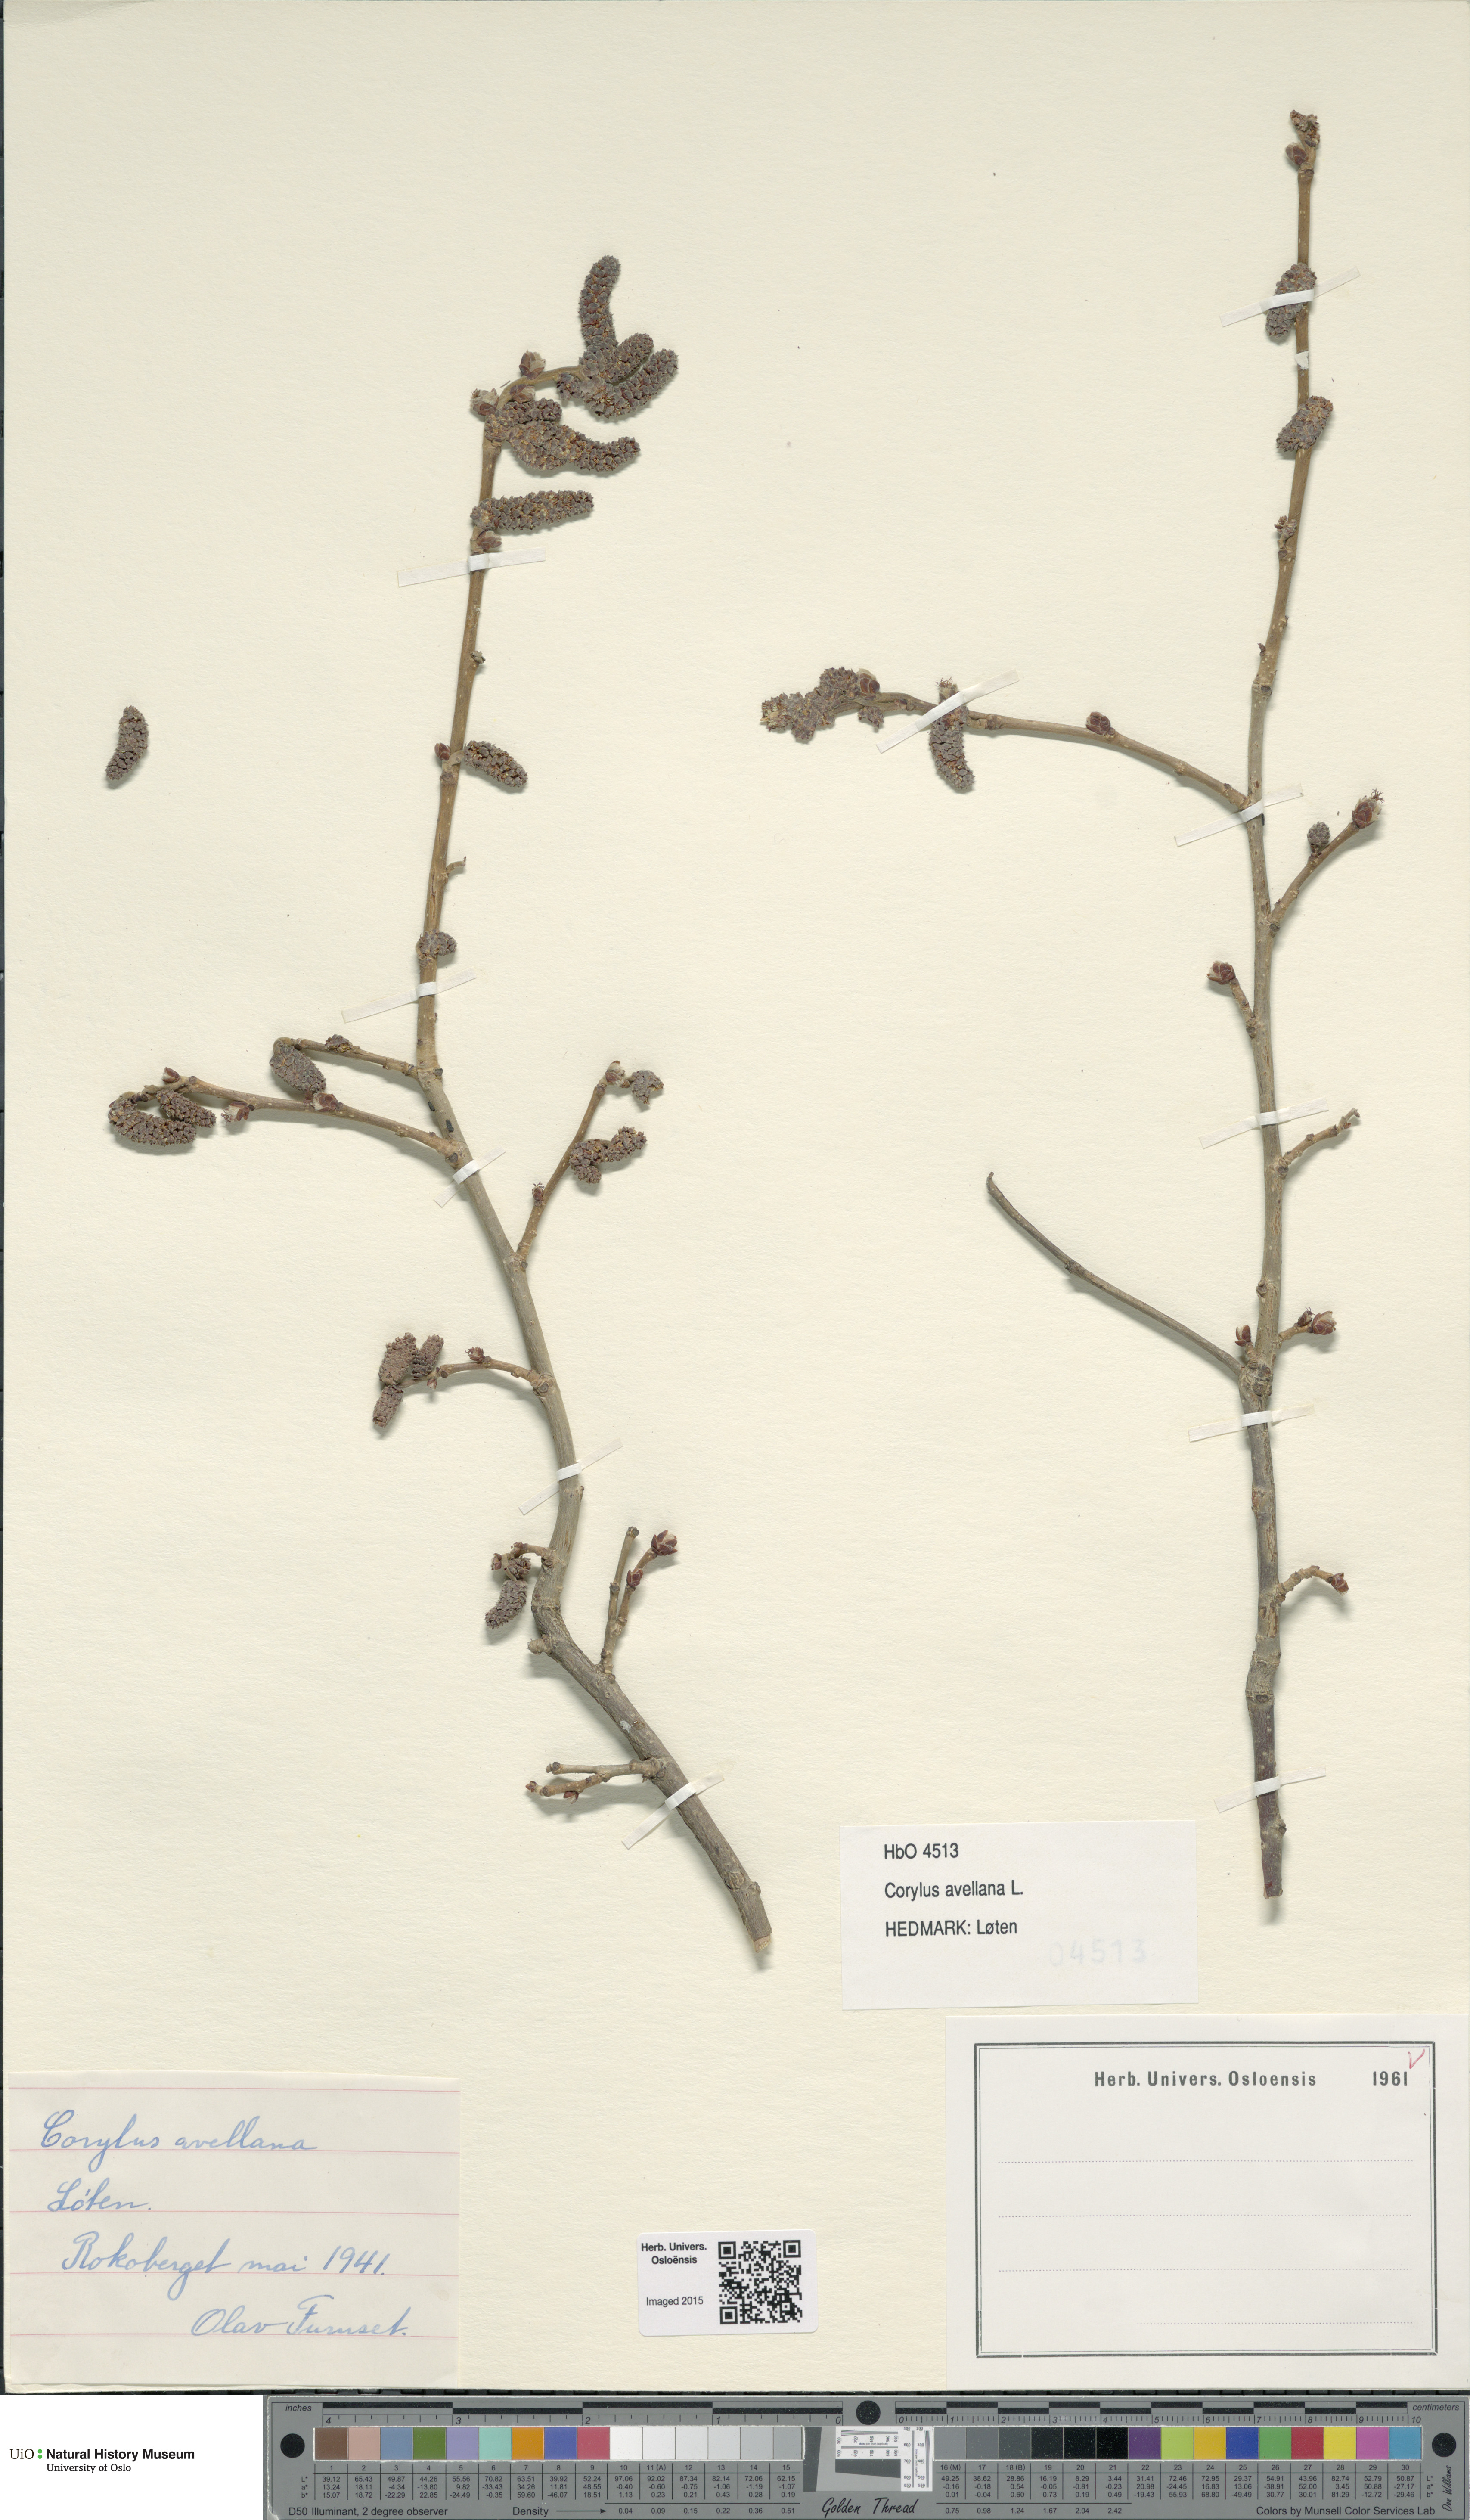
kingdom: Plantae
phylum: Tracheophyta
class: Magnoliopsida
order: Fagales
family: Betulaceae
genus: Corylus
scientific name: Corylus avellana
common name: European hazel
